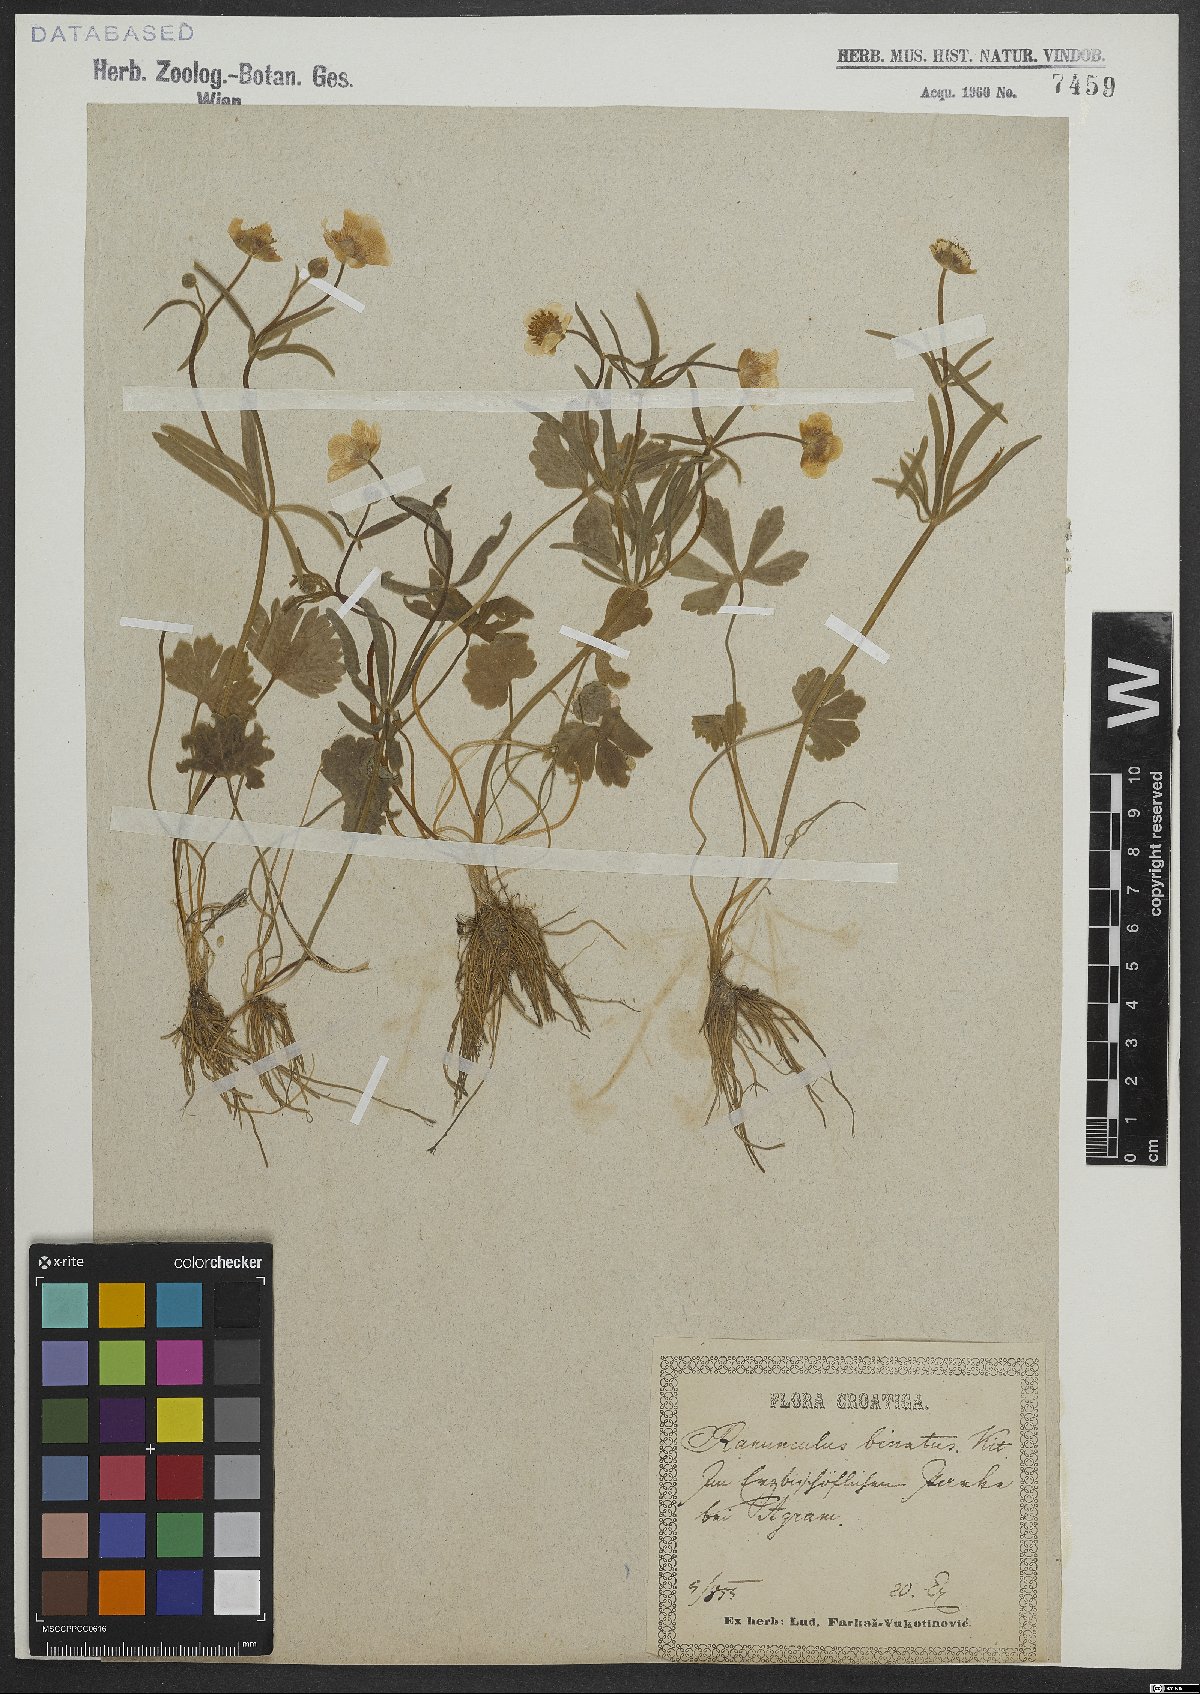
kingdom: Plantae
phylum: Tracheophyta
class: Magnoliopsida
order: Ranunculales
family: Ranunculaceae
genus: Ranunculus
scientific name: Ranunculus binatus
